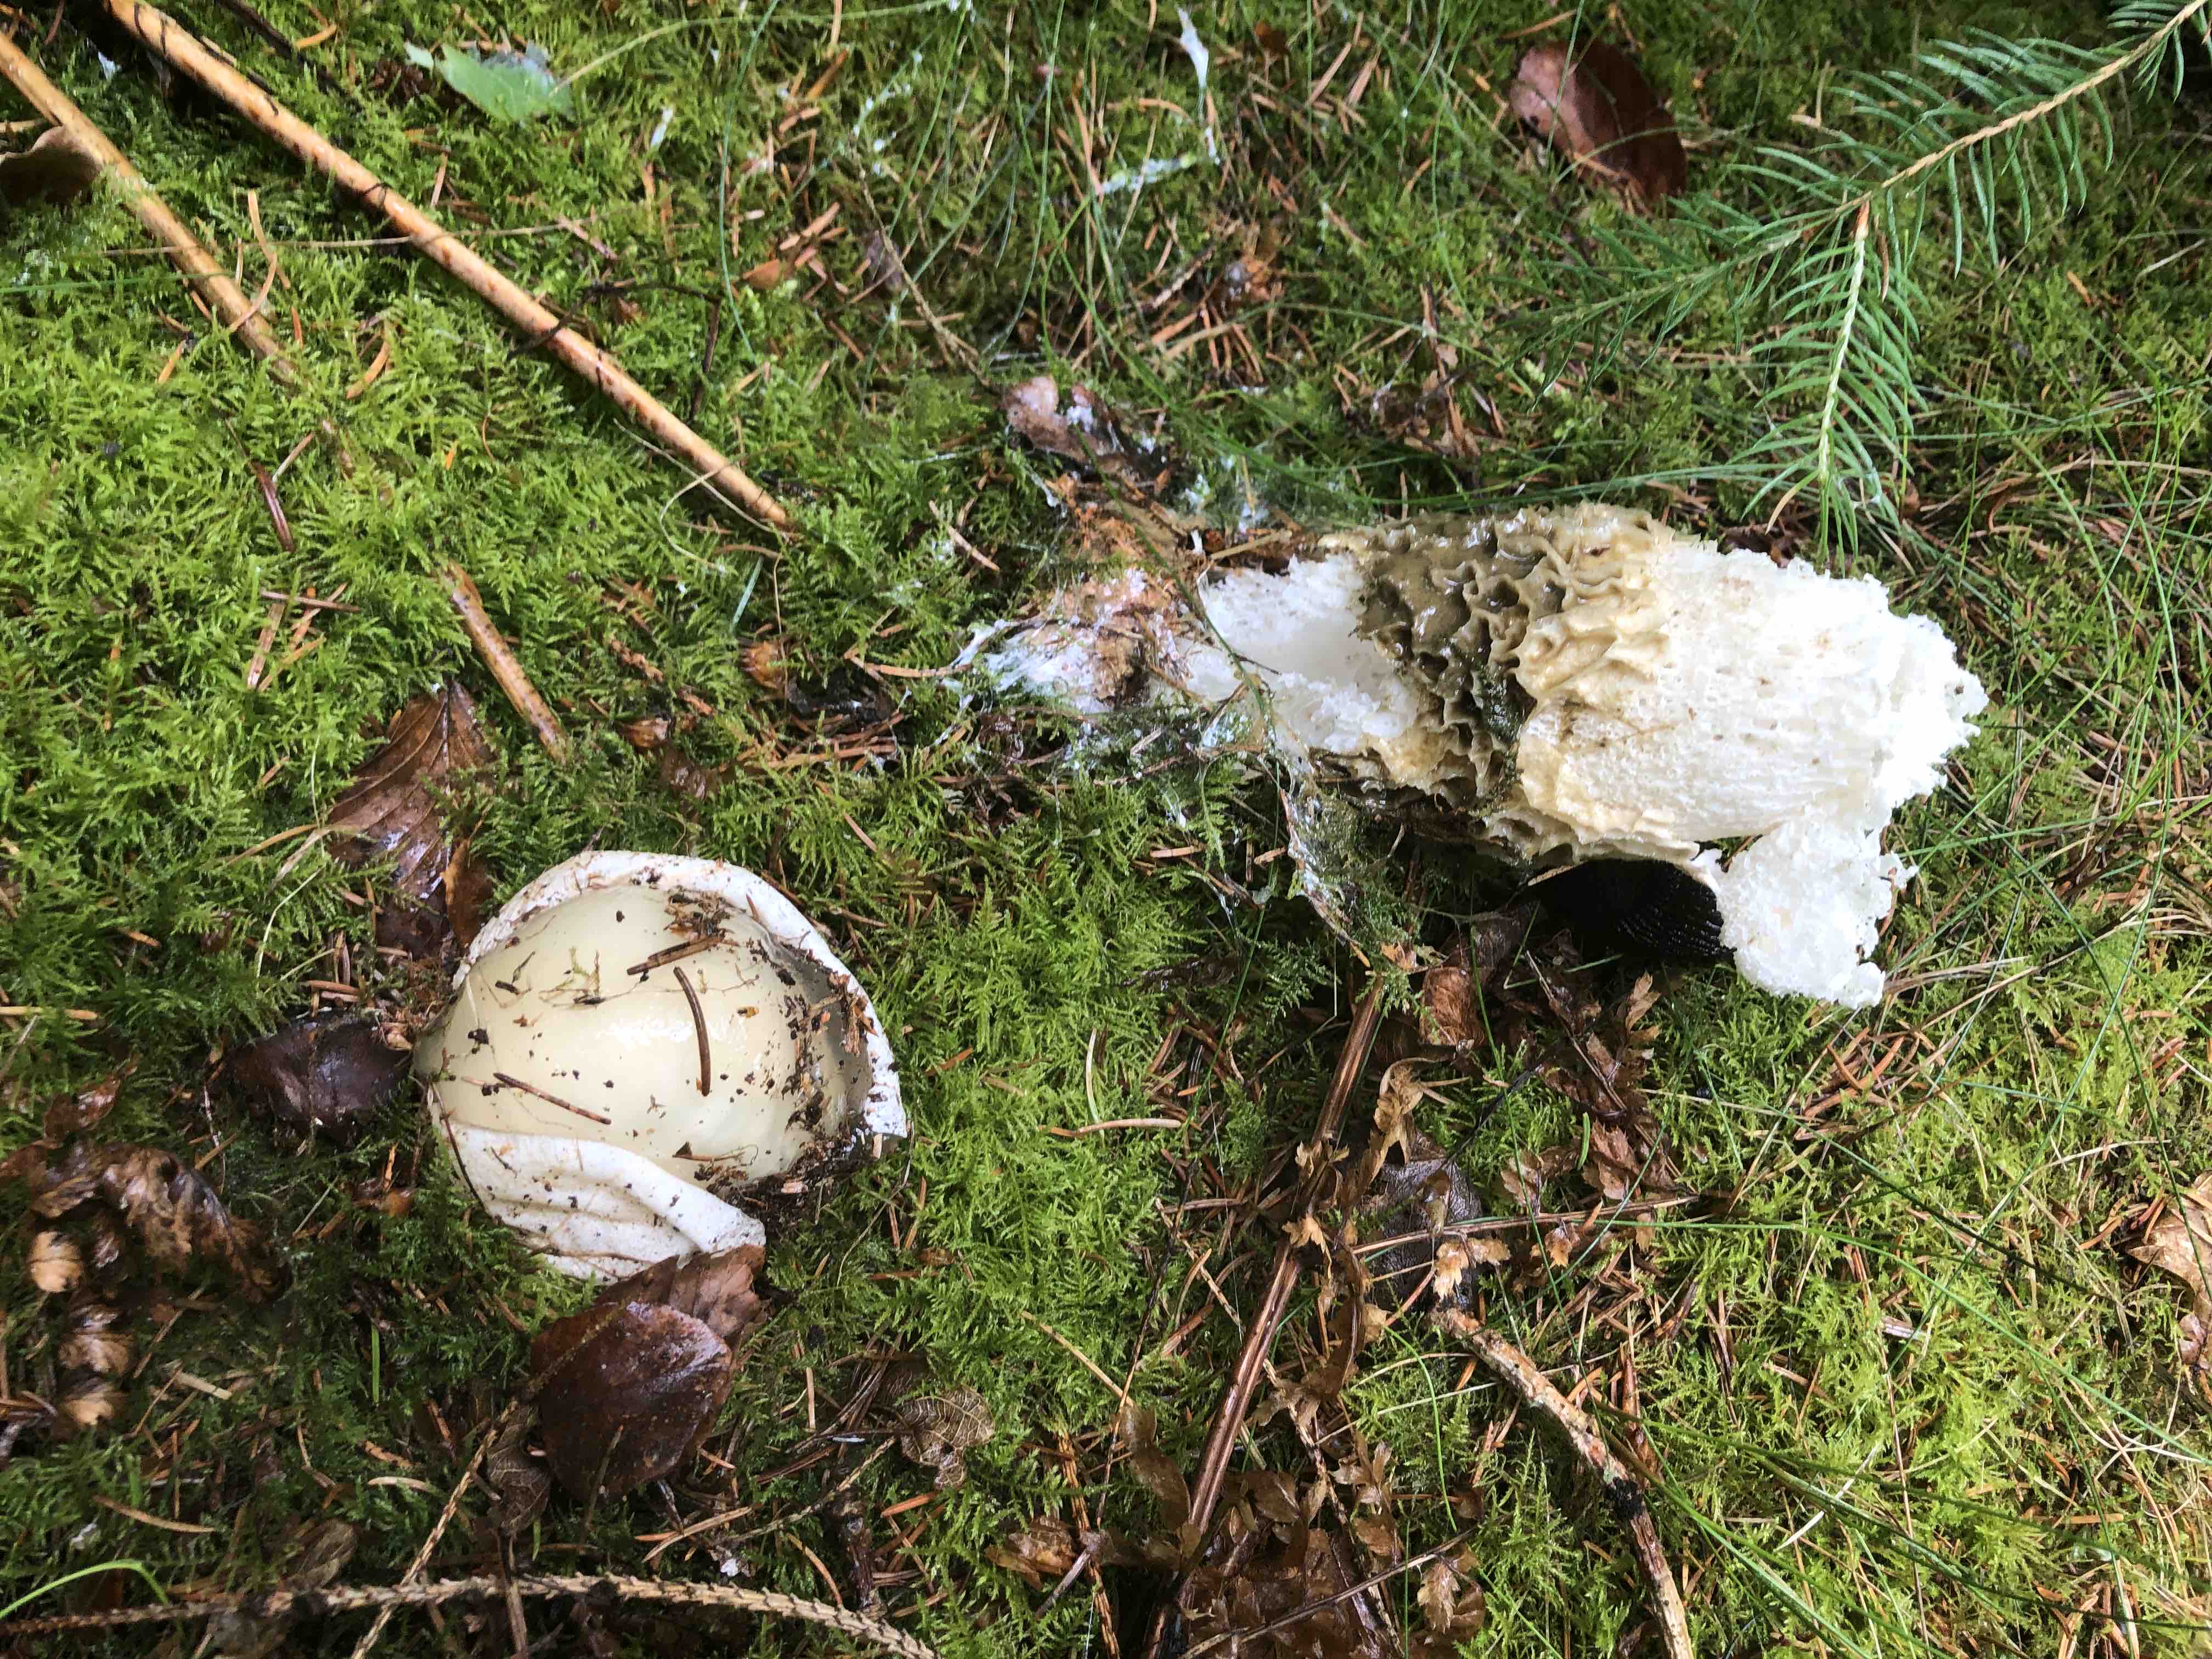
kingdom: Fungi
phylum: Basidiomycota
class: Agaricomycetes
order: Phallales
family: Phallaceae
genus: Phallus
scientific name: Phallus impudicus
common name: almindelig stinksvamp
